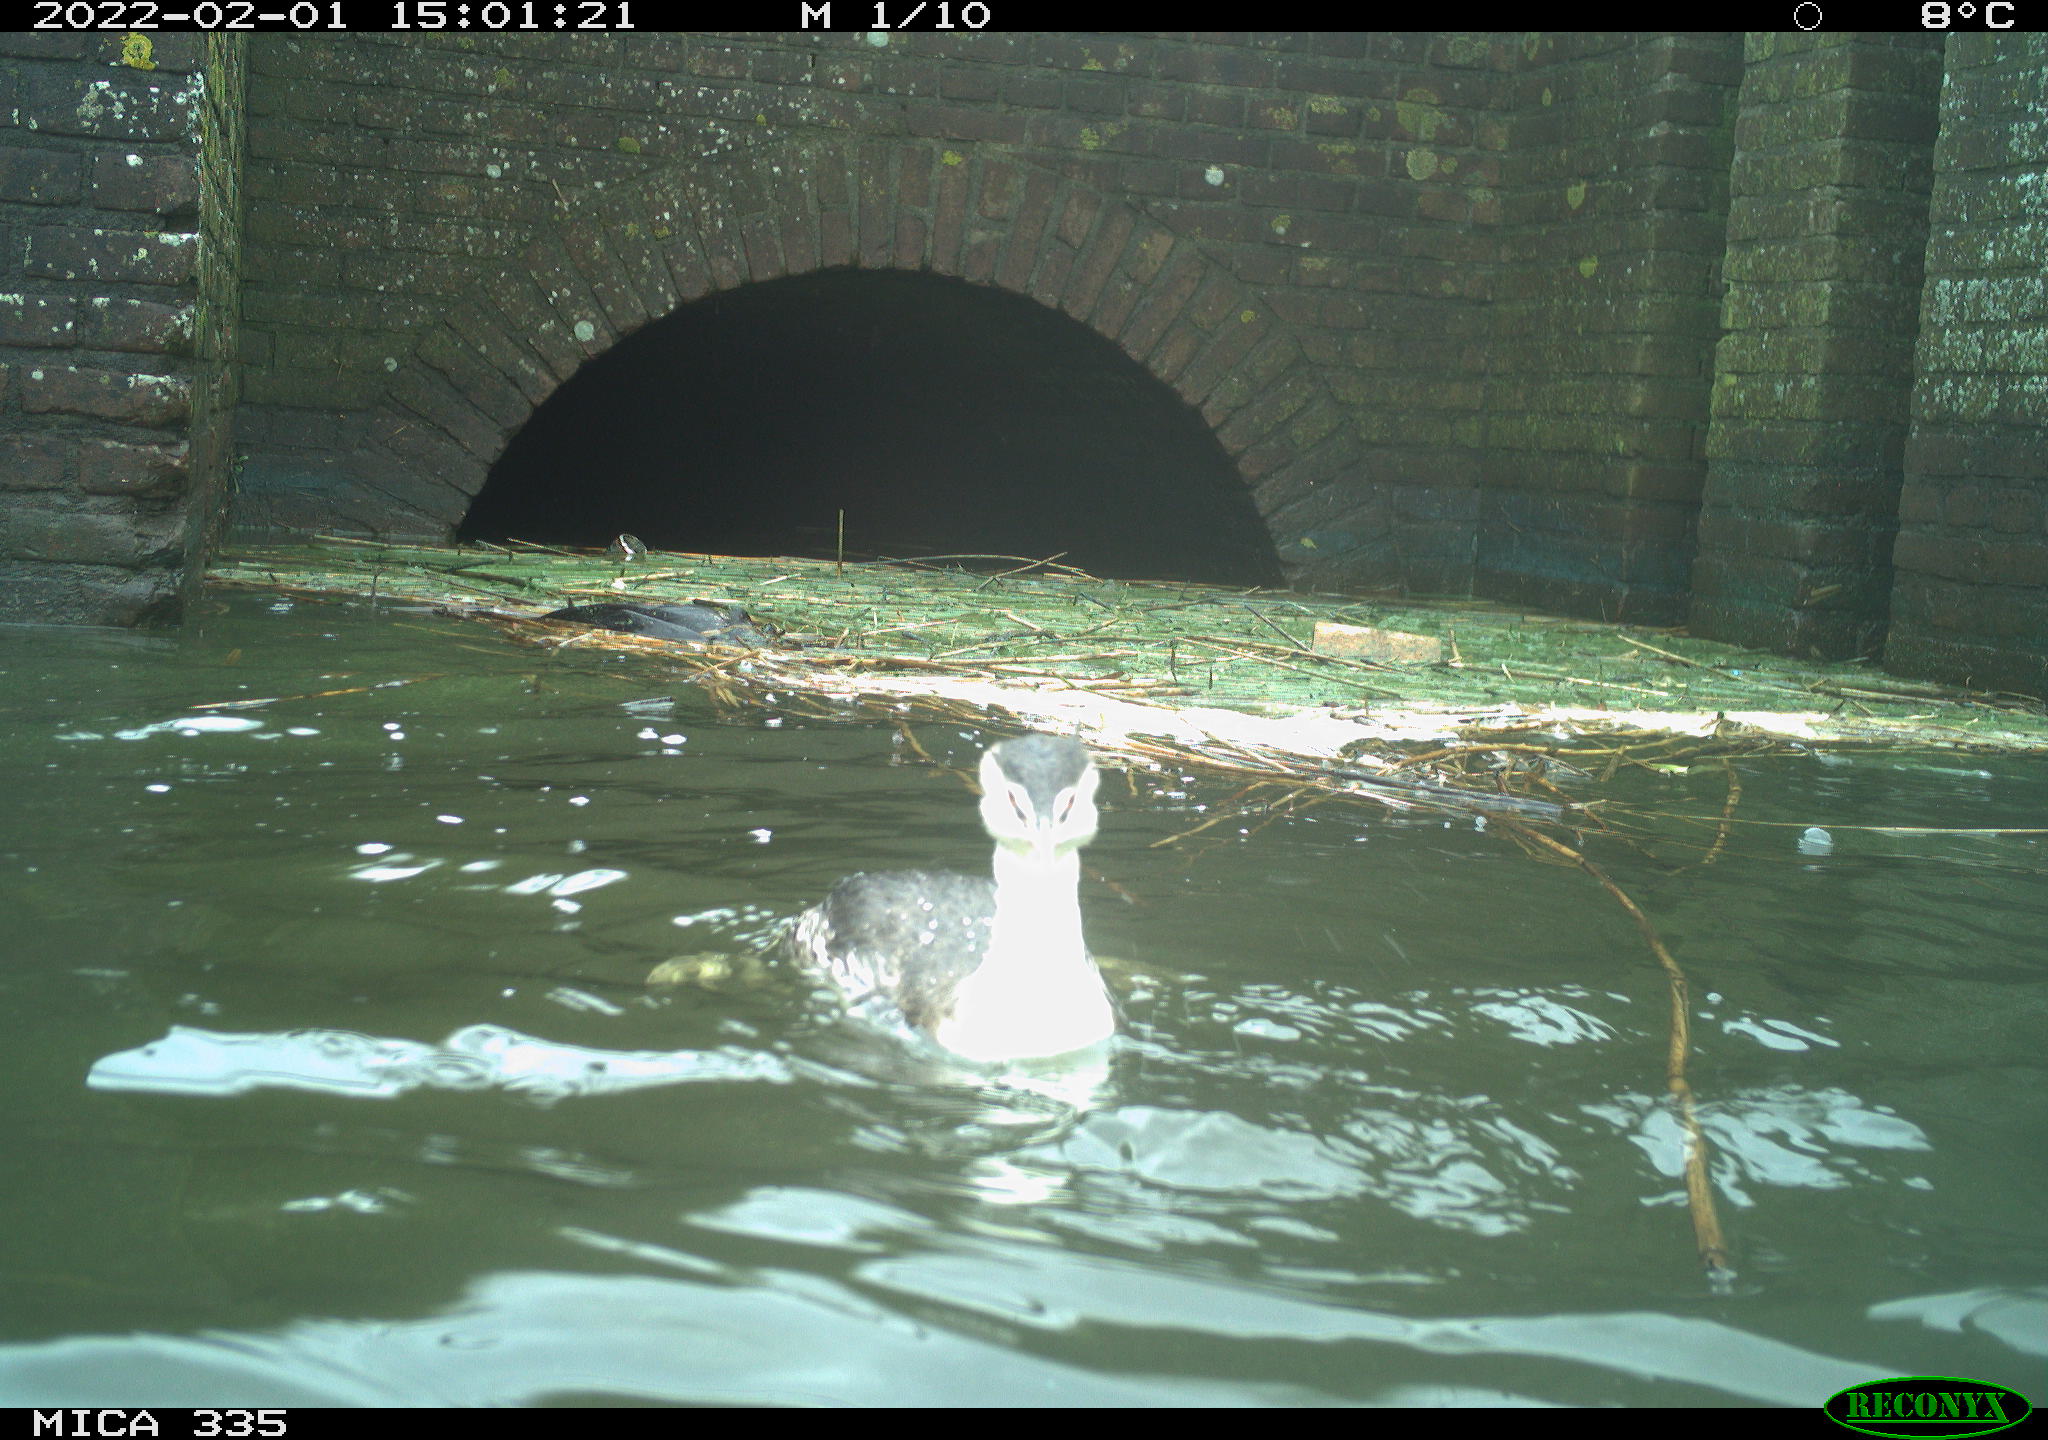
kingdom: Animalia
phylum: Chordata
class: Aves
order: Podicipediformes
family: Podicipedidae
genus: Podiceps
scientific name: Podiceps cristatus
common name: Great crested grebe
